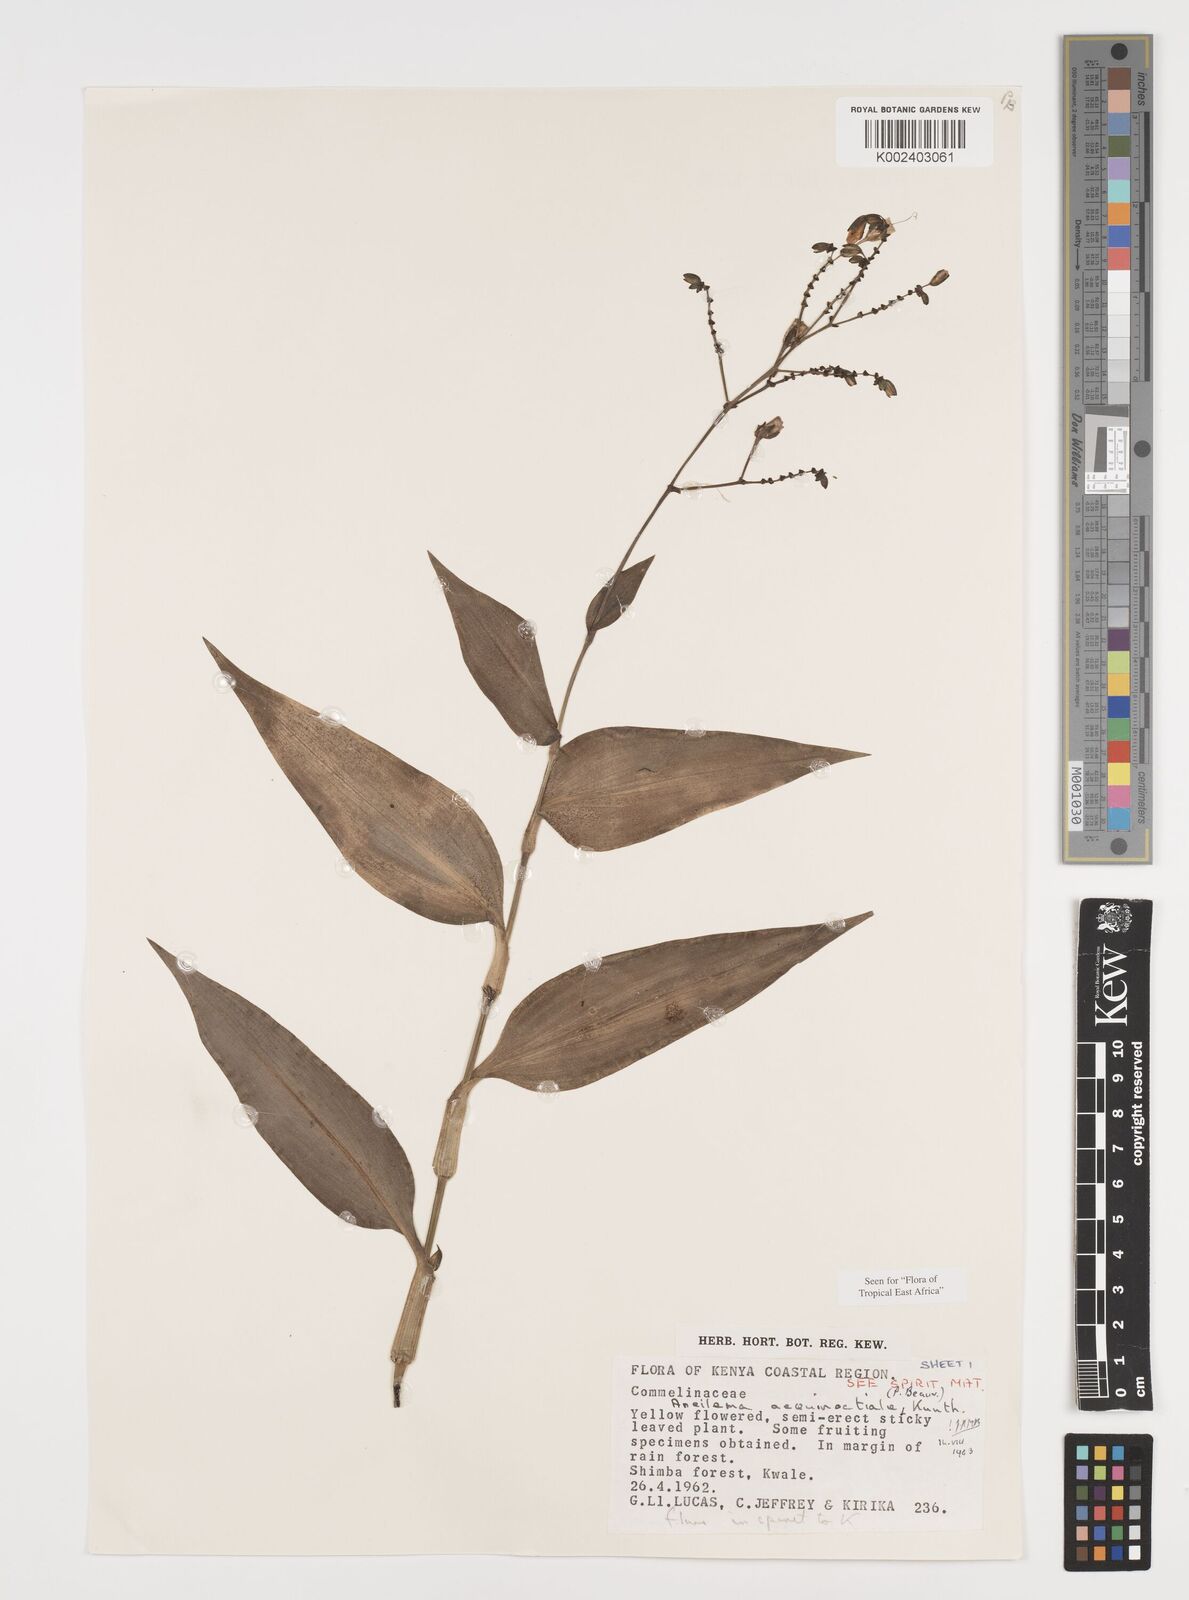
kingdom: Plantae
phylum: Tracheophyta
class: Liliopsida
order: Commelinales
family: Commelinaceae
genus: Aneilema
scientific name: Aneilema aequinoctiale
